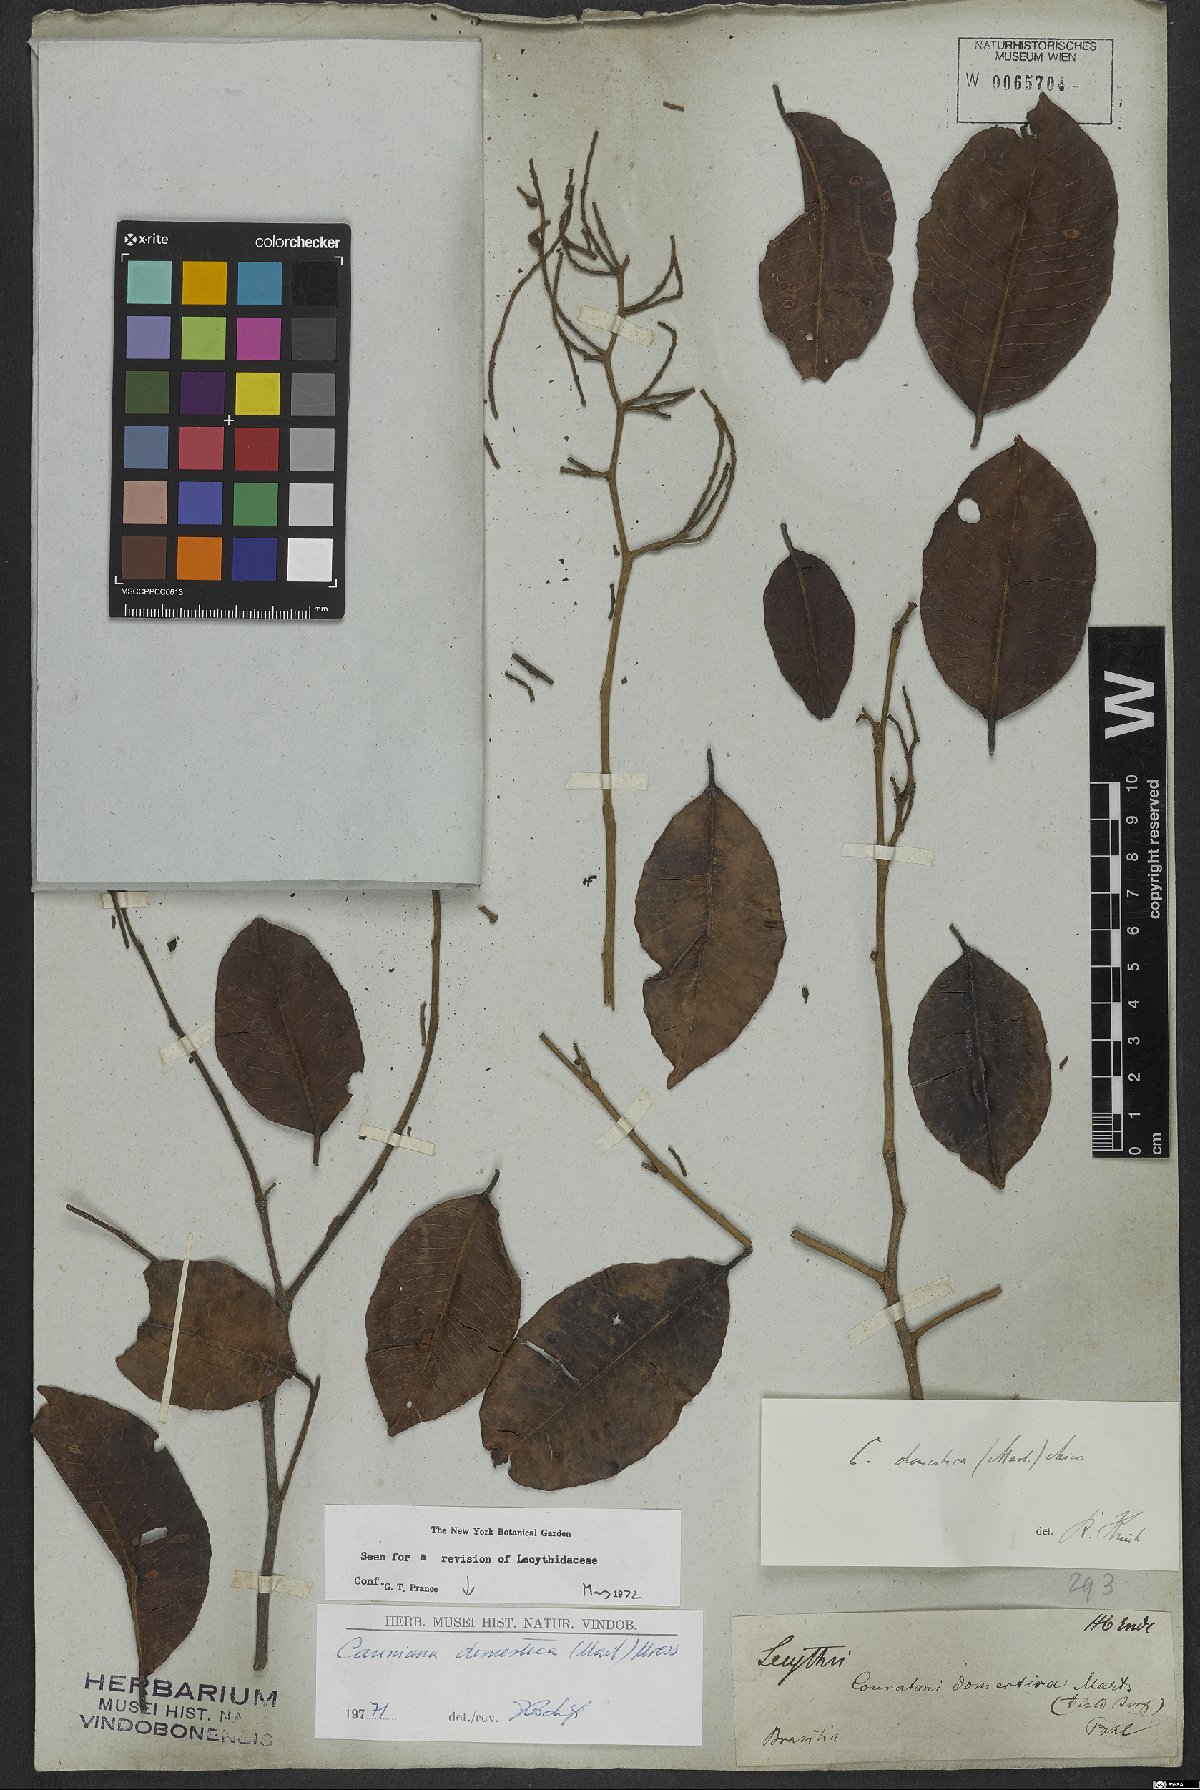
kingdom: Plantae
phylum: Tracheophyta
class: Magnoliopsida
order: Ericales
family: Lecythidaceae
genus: Cariniana
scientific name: Cariniana domestica
